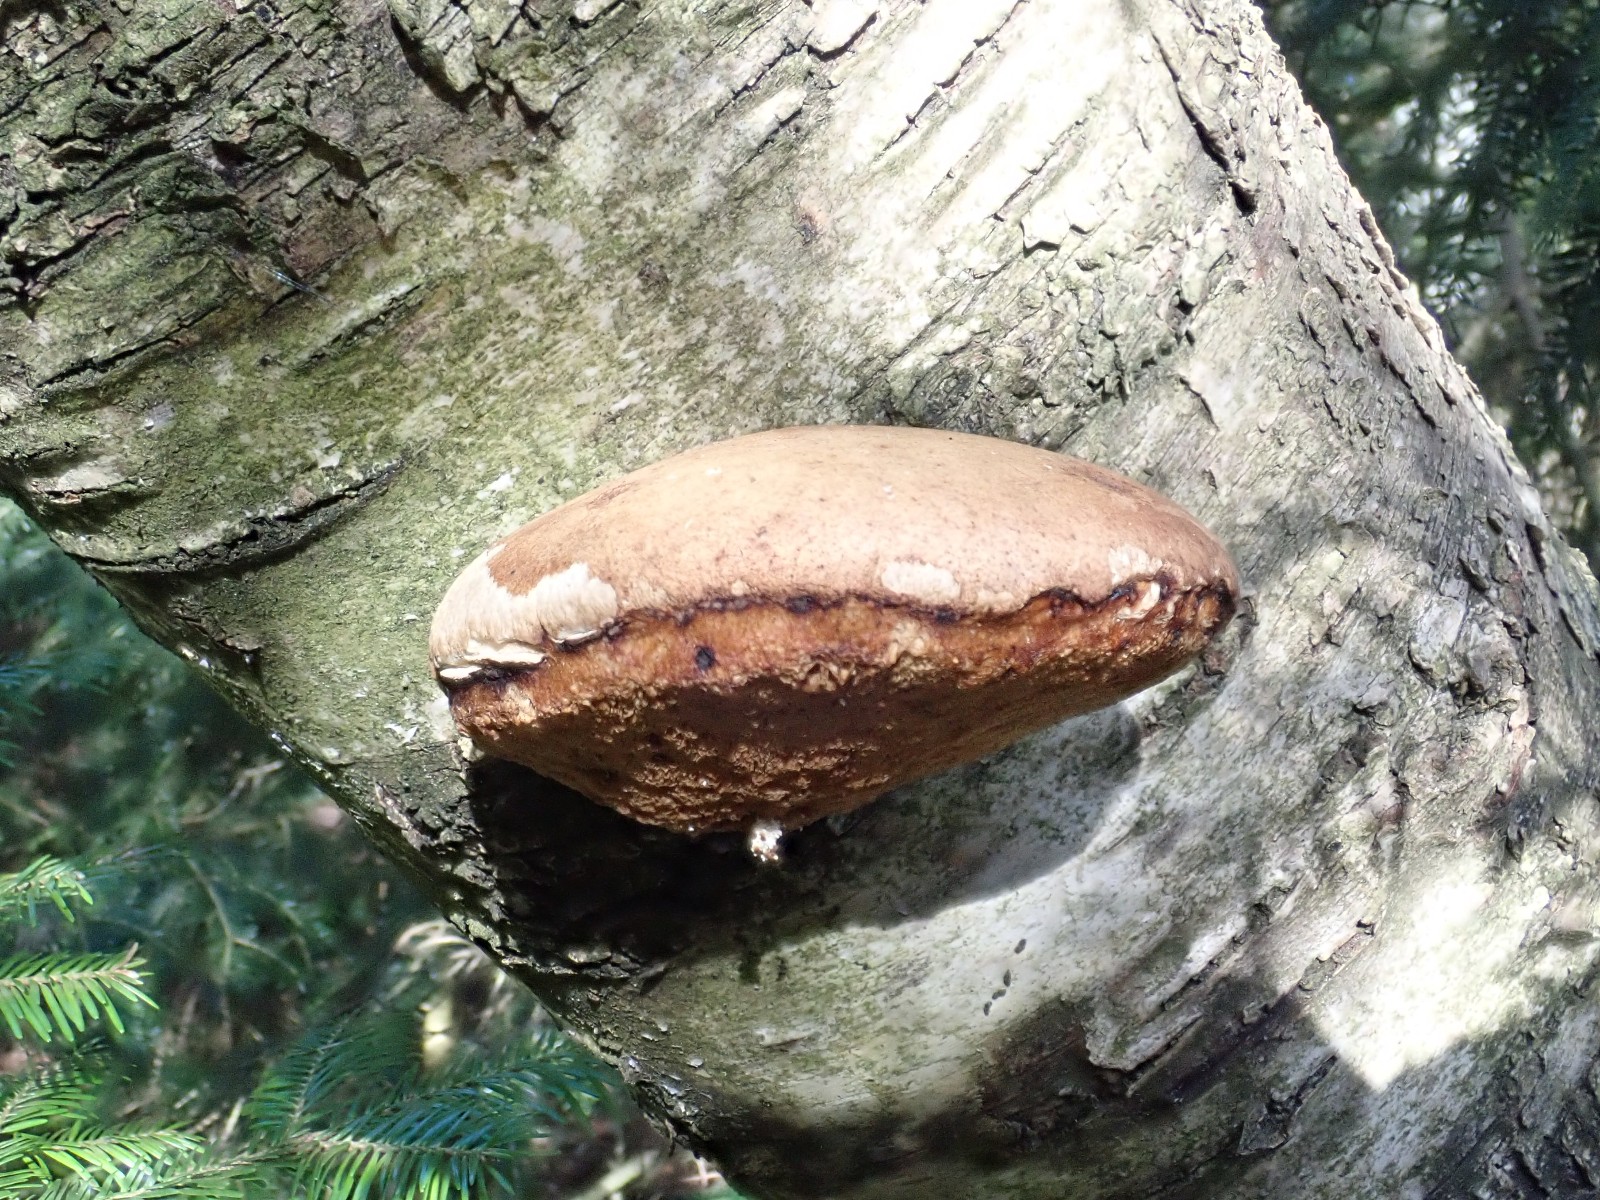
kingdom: Fungi
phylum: Basidiomycota
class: Agaricomycetes
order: Polyporales
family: Fomitopsidaceae
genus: Fomitopsis
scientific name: Fomitopsis betulina
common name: birkeporesvamp
